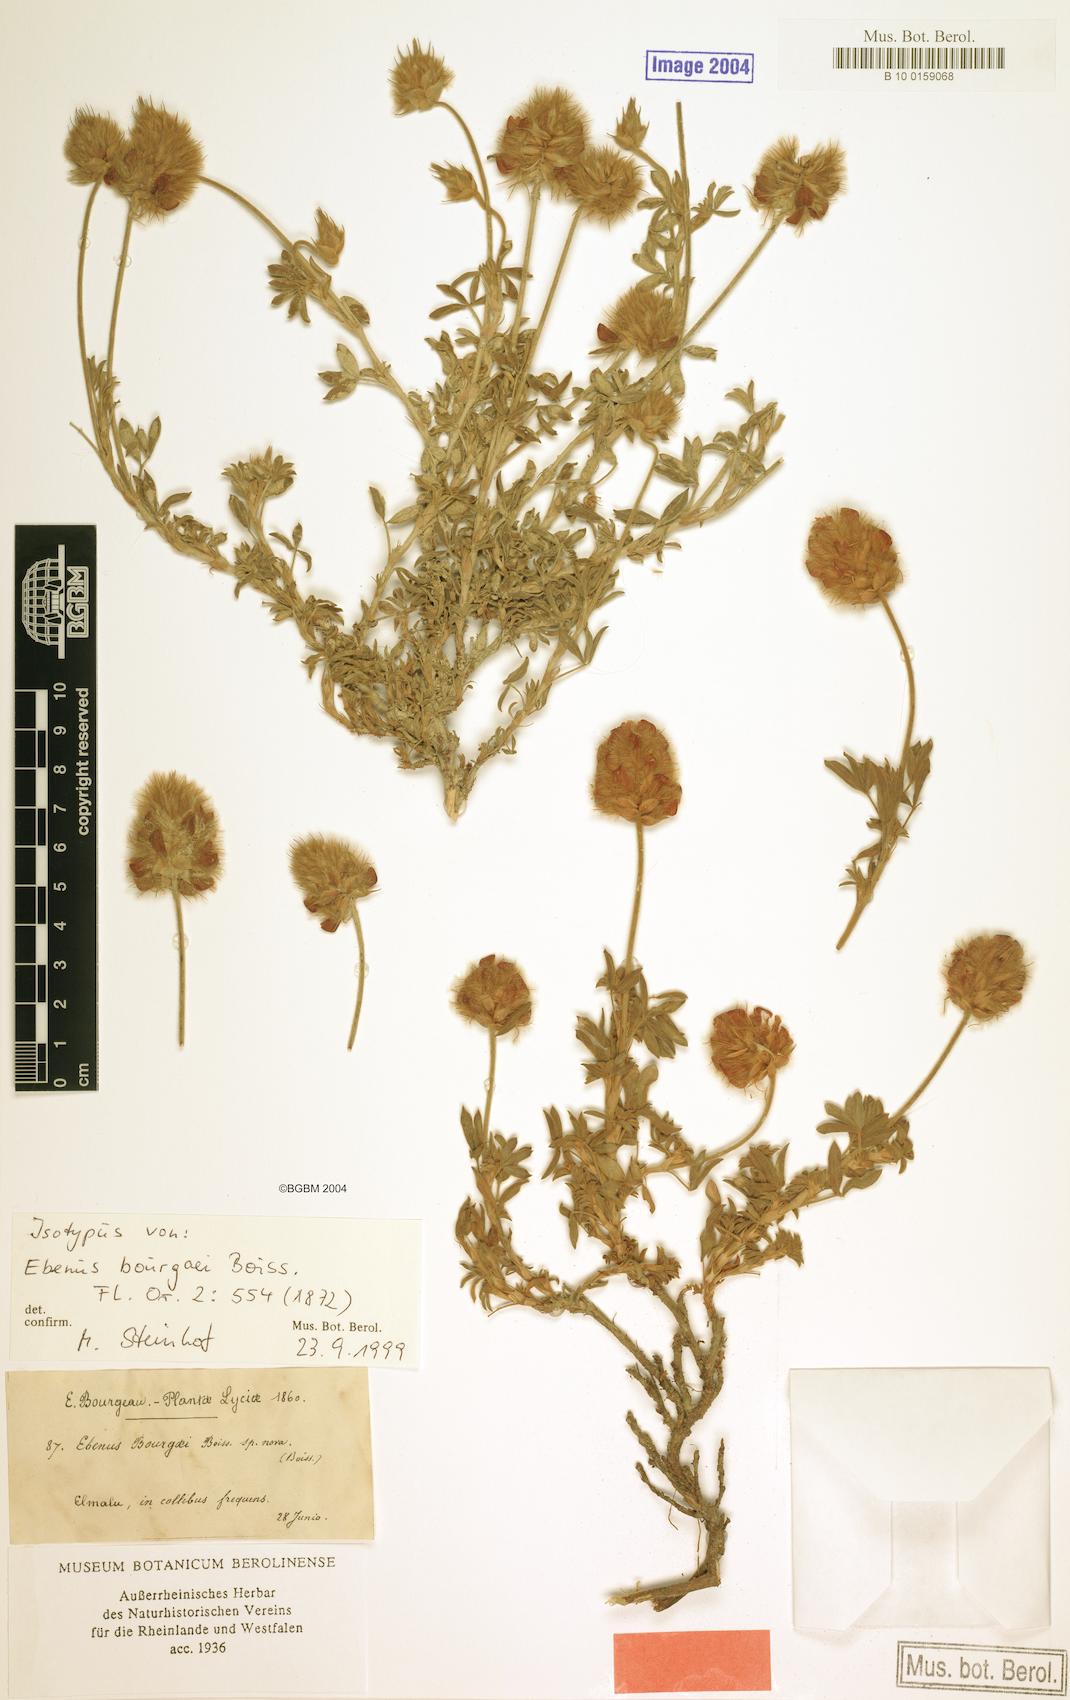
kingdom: Plantae
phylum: Tracheophyta
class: Magnoliopsida
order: Fabales
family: Fabaceae
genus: Ebenus
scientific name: Ebenus bourgaei
